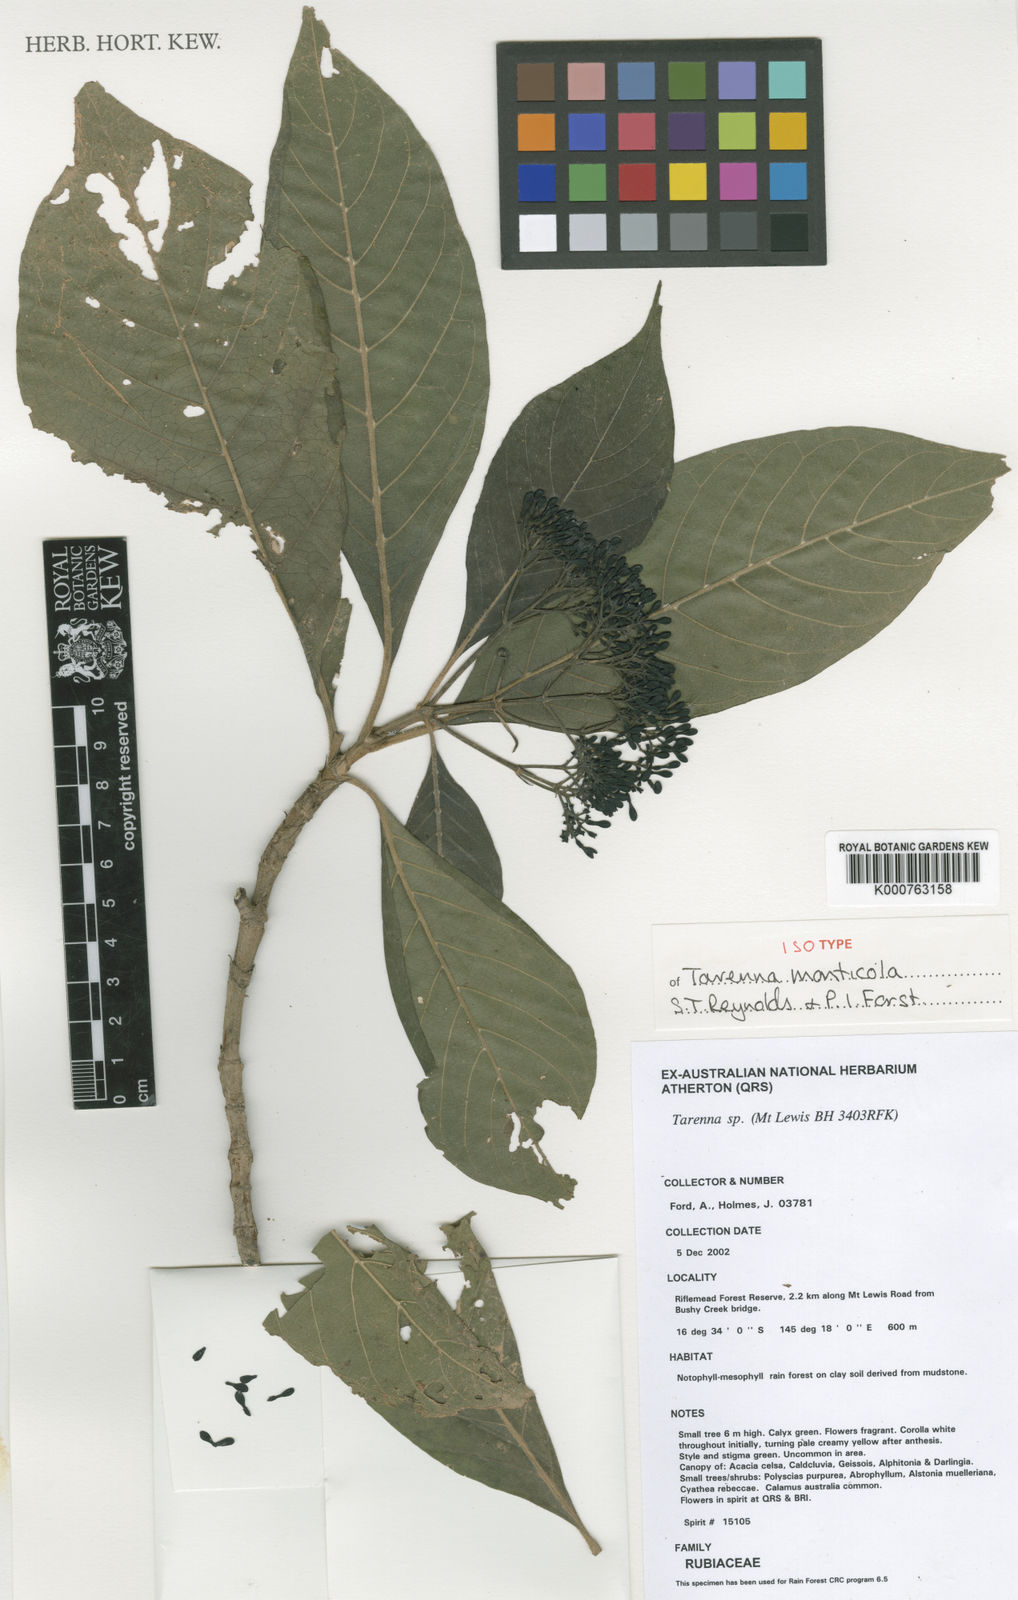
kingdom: Plantae
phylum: Tracheophyta
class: Magnoliopsida
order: Gentianales
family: Rubiaceae
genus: Tarenna
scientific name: Tarenna monticola
